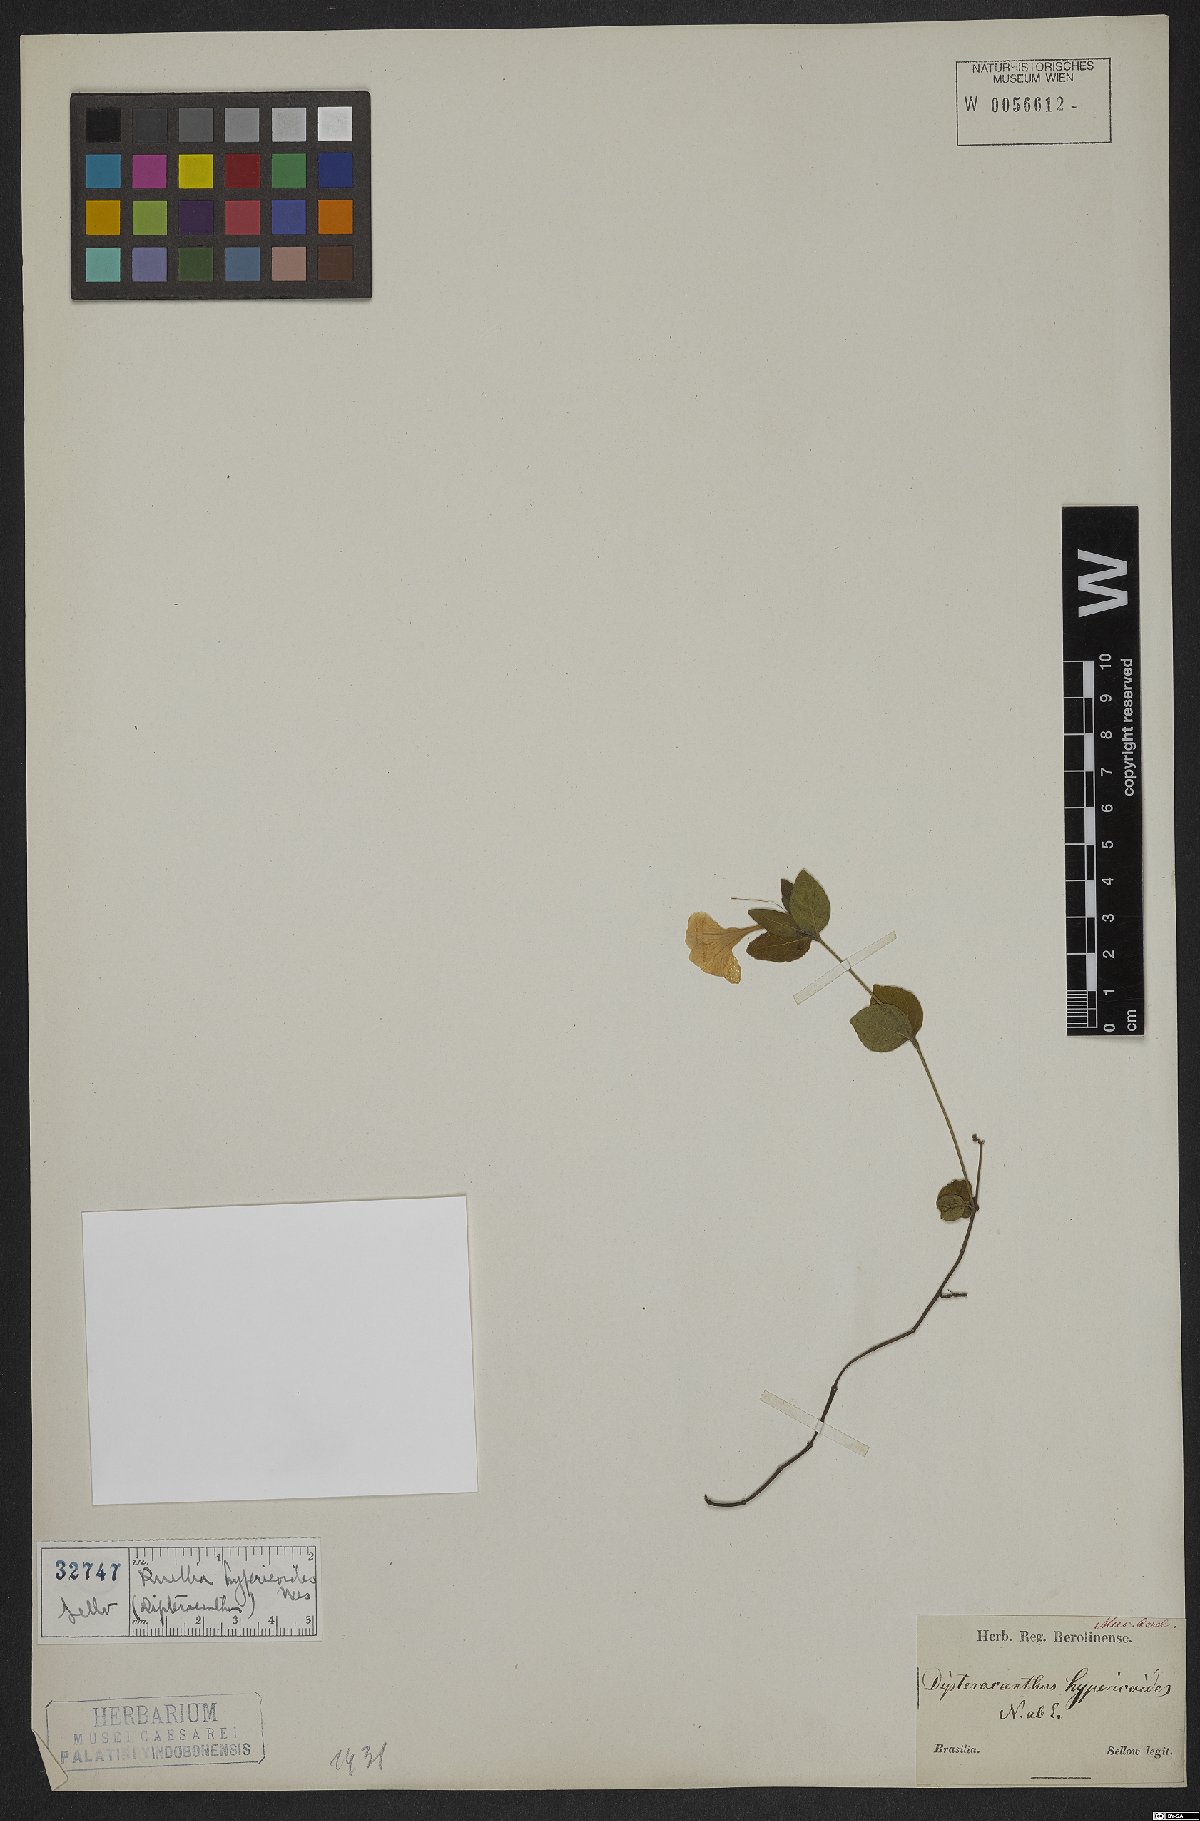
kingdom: Plantae
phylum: Tracheophyta
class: Magnoliopsida
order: Lamiales
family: Acanthaceae
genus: Ruellia
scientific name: Ruellia hypericoides
